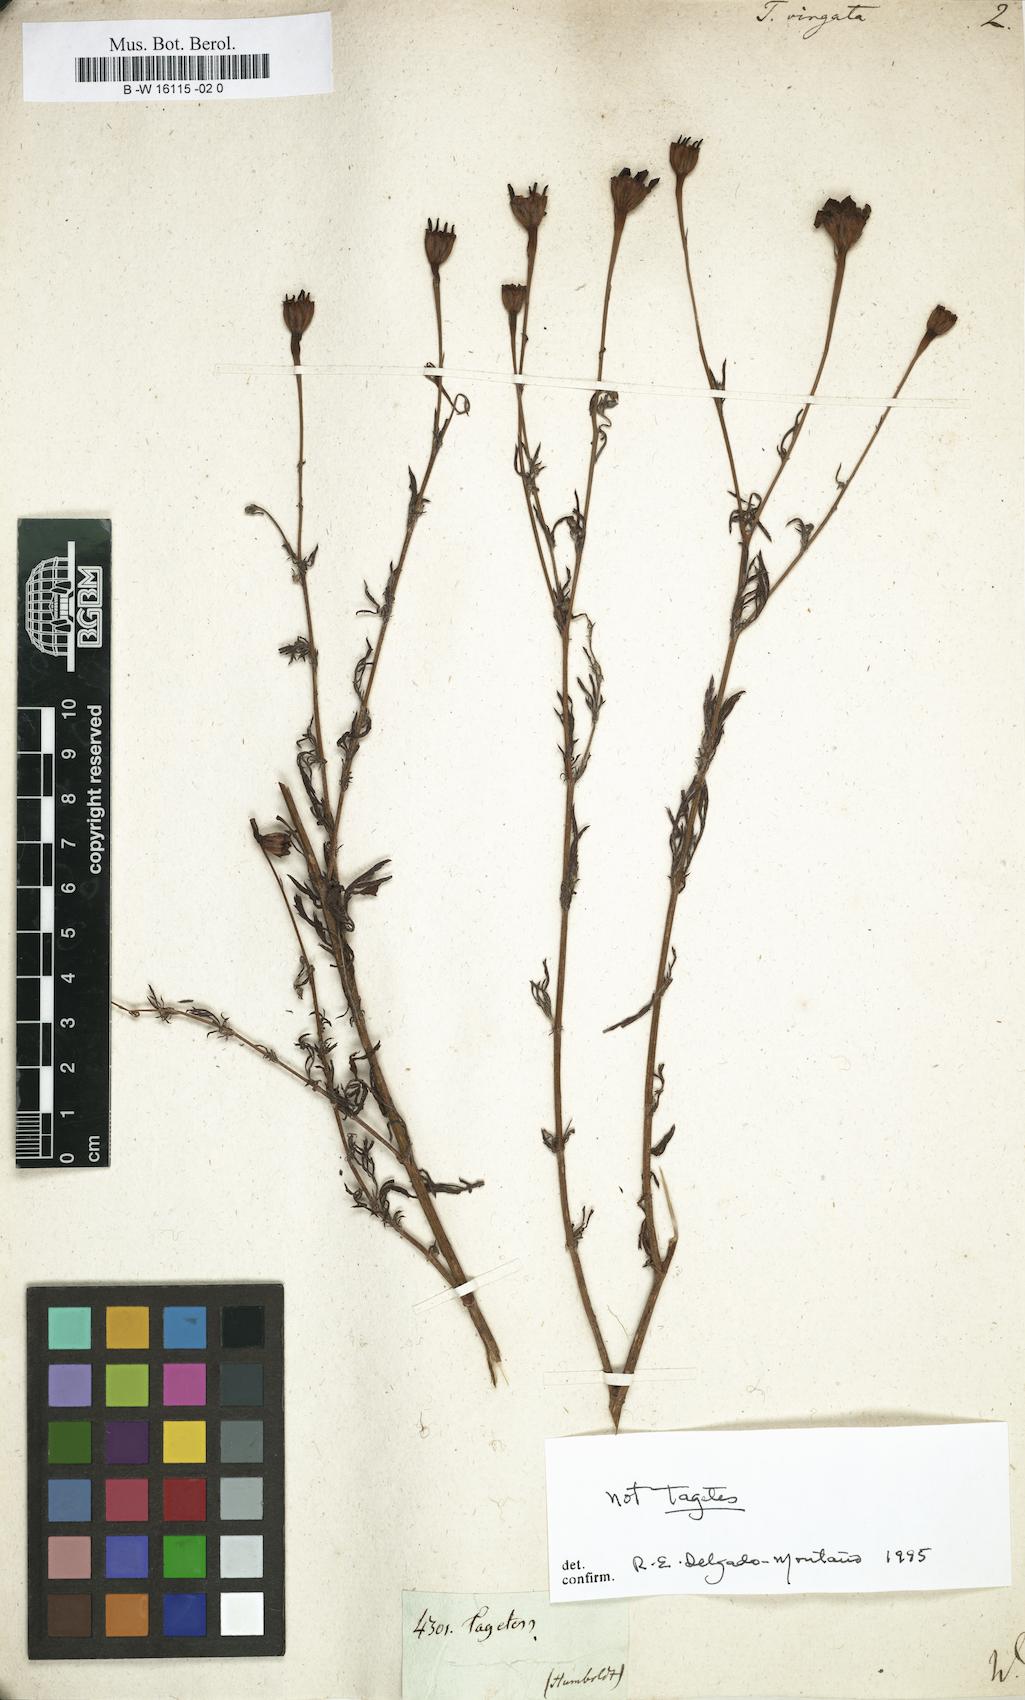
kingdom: Plantae
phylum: Tracheophyta
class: Magnoliopsida
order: Asterales
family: Asteraceae
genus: Tagetes
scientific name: Tagetes
